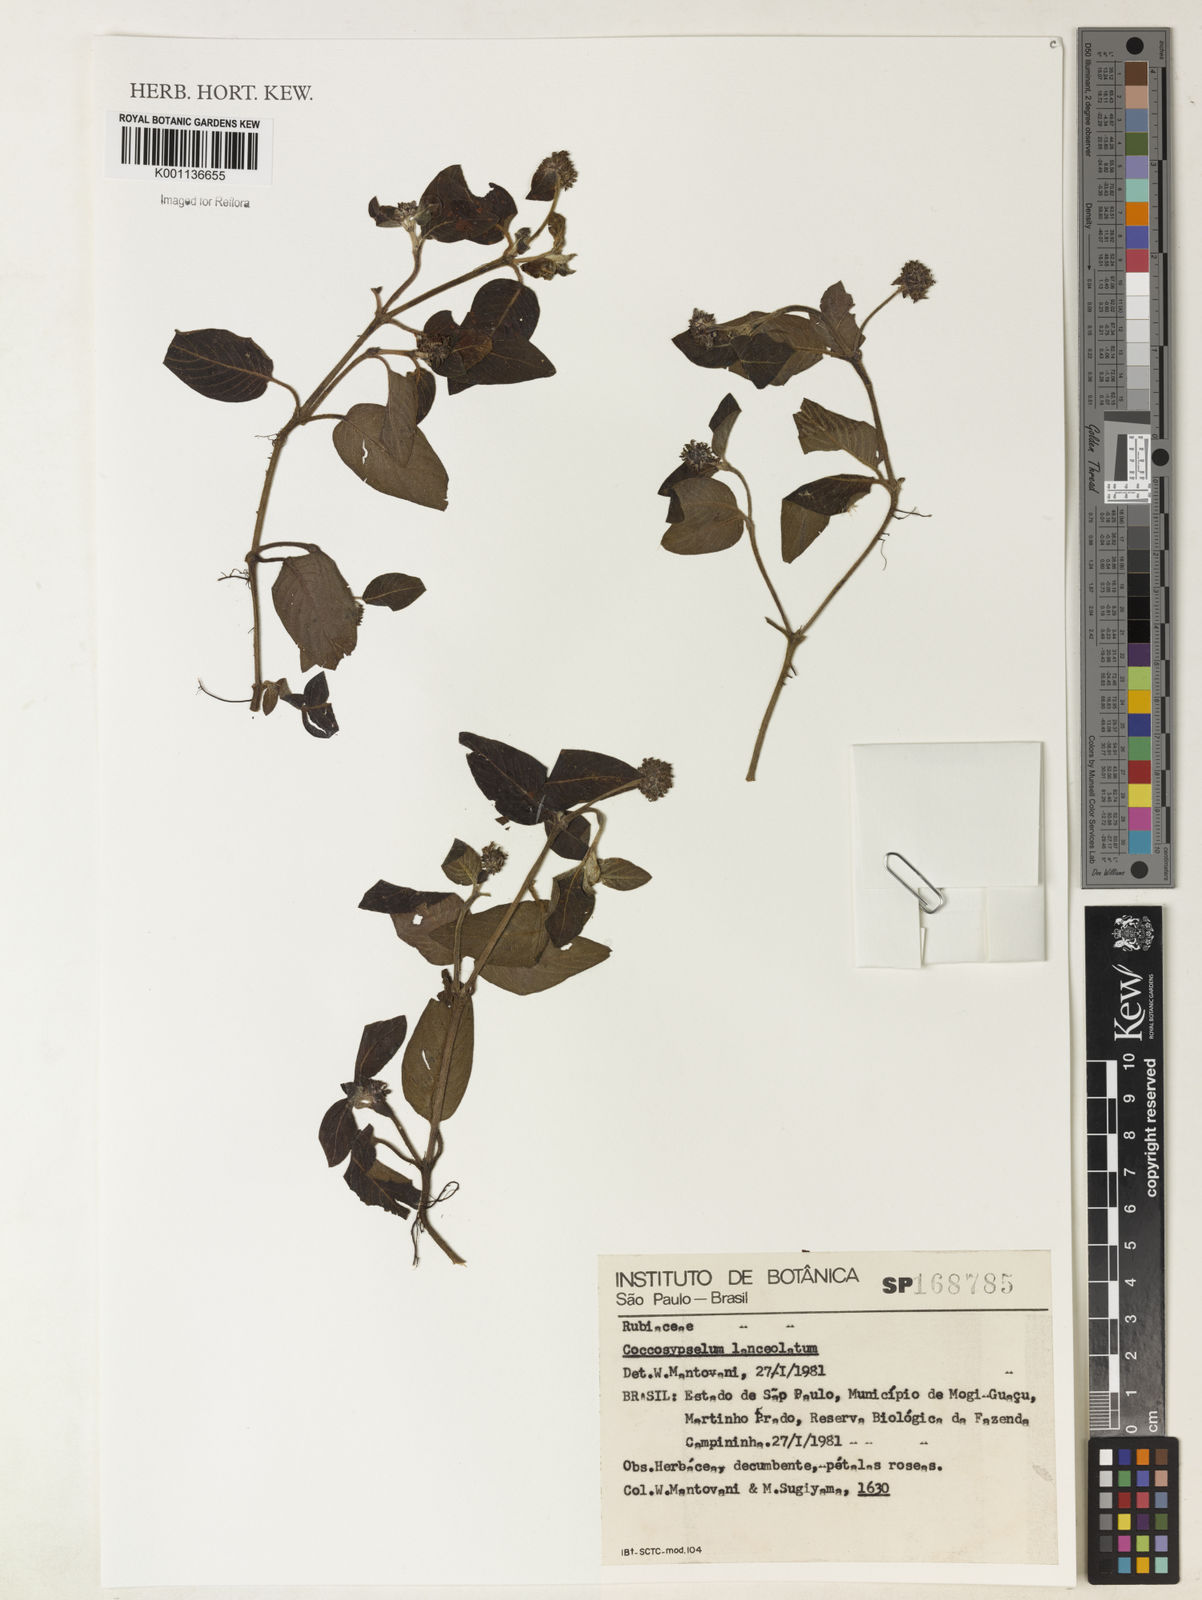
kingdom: Plantae
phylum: Tracheophyta
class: Magnoliopsida
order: Gentianales
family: Rubiaceae
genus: Coccocypselum
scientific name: Coccocypselum lanceolatum
